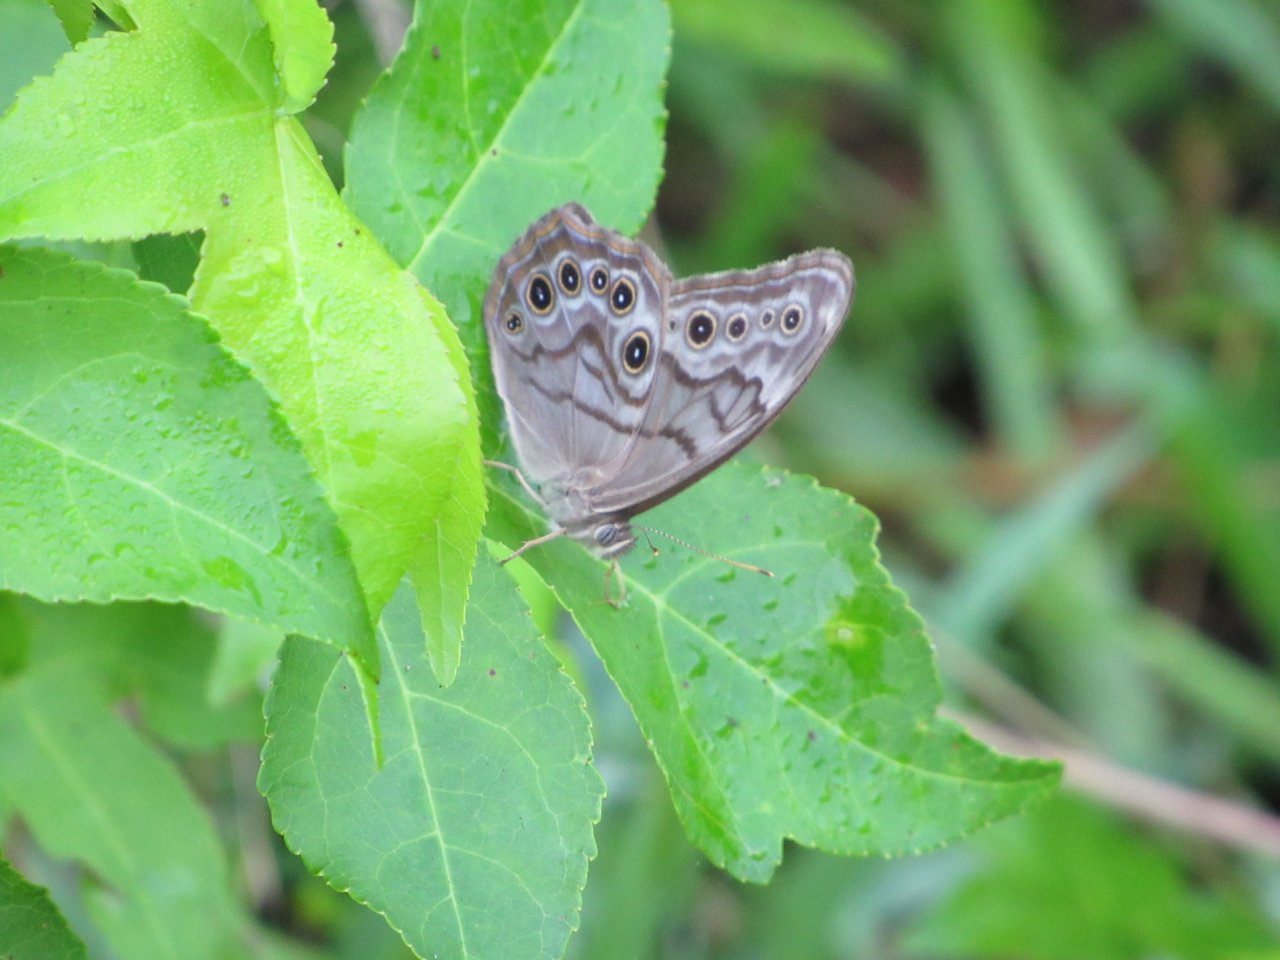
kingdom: Animalia
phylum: Arthropoda
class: Insecta
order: Lepidoptera
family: Nymphalidae
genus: Lethe
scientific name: Lethe creola
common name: Creole Pearly-Eye
